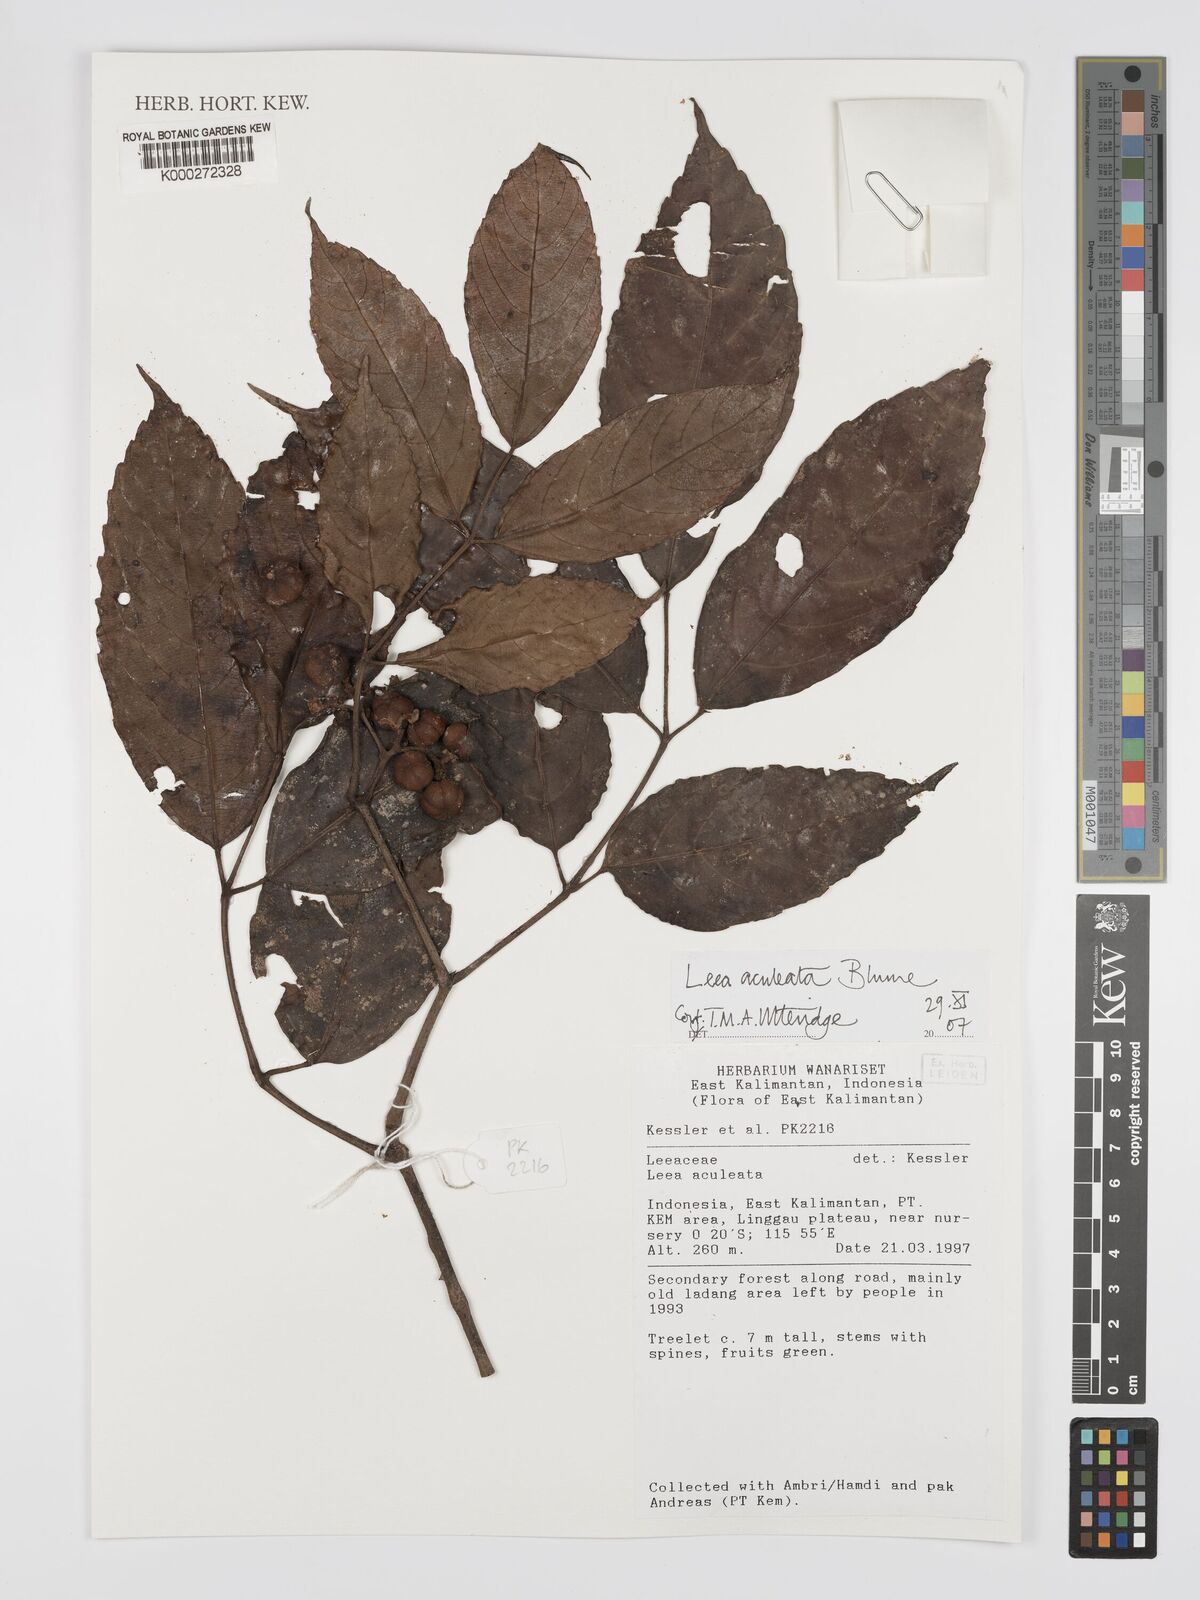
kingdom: Plantae
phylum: Tracheophyta
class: Magnoliopsida
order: Vitales
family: Vitaceae
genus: Leea
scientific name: Leea aculeata
